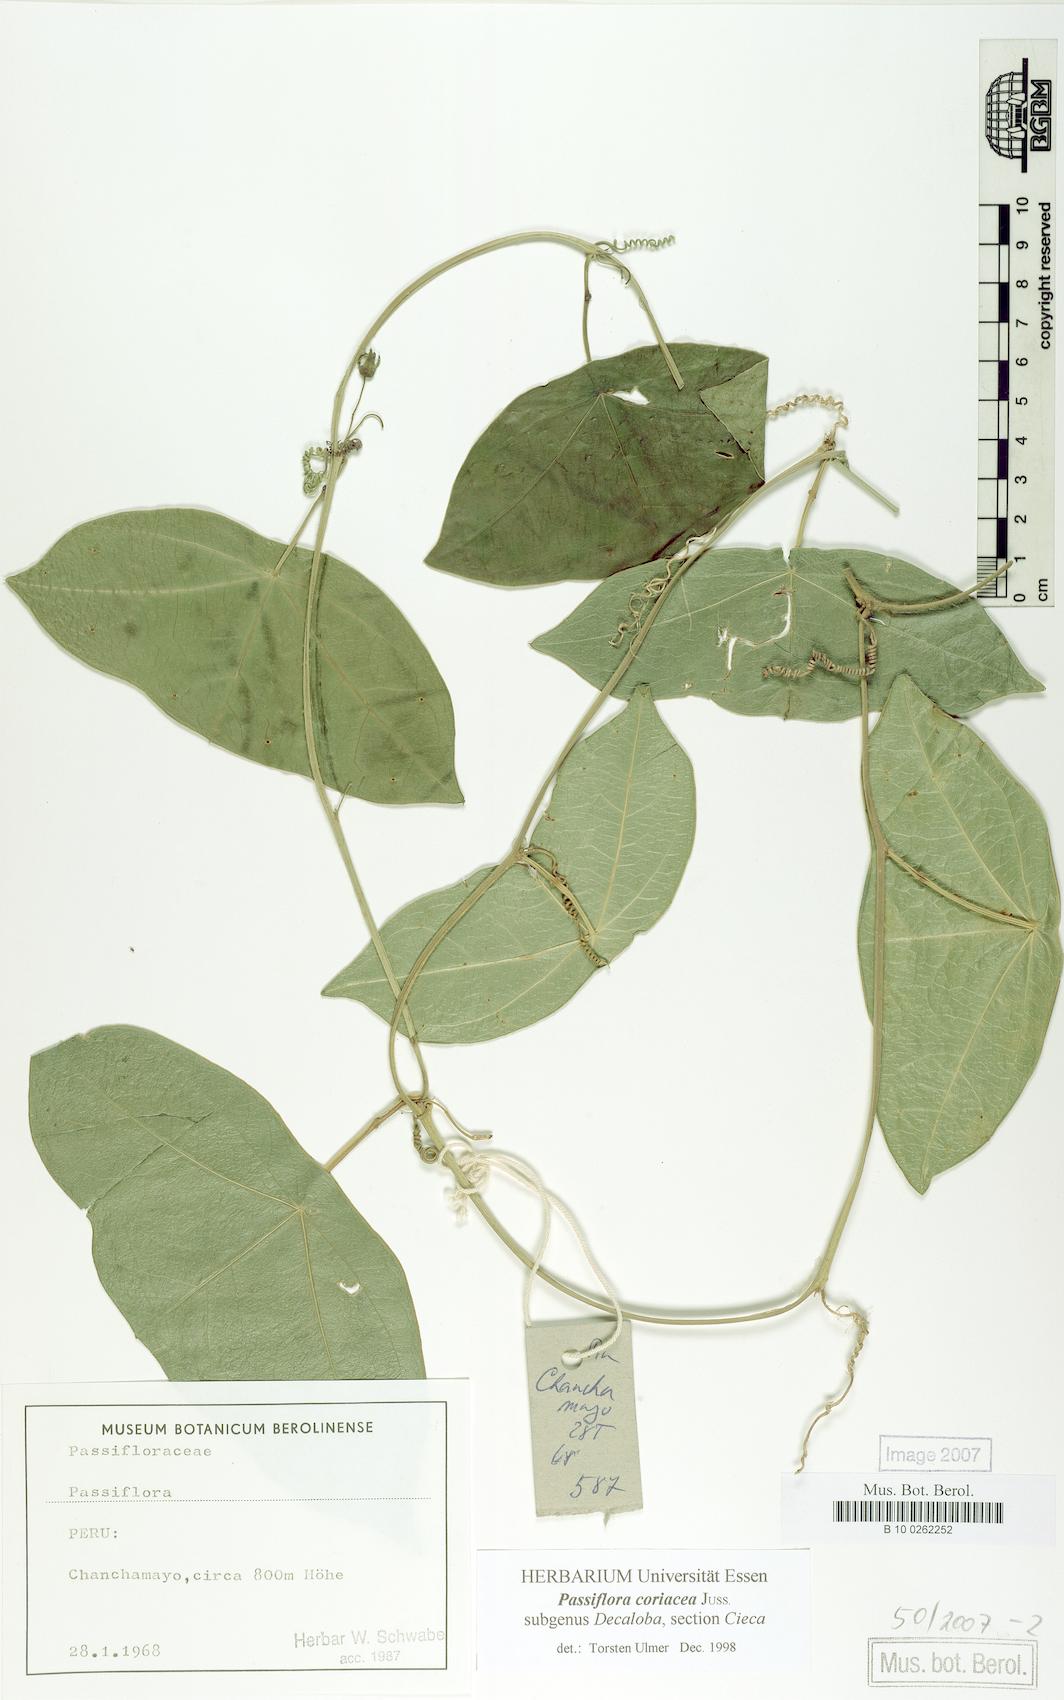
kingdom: Plantae
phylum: Tracheophyta
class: Magnoliopsida
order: Malpighiales
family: Passifloraceae
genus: Passiflora
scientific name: Passiflora
